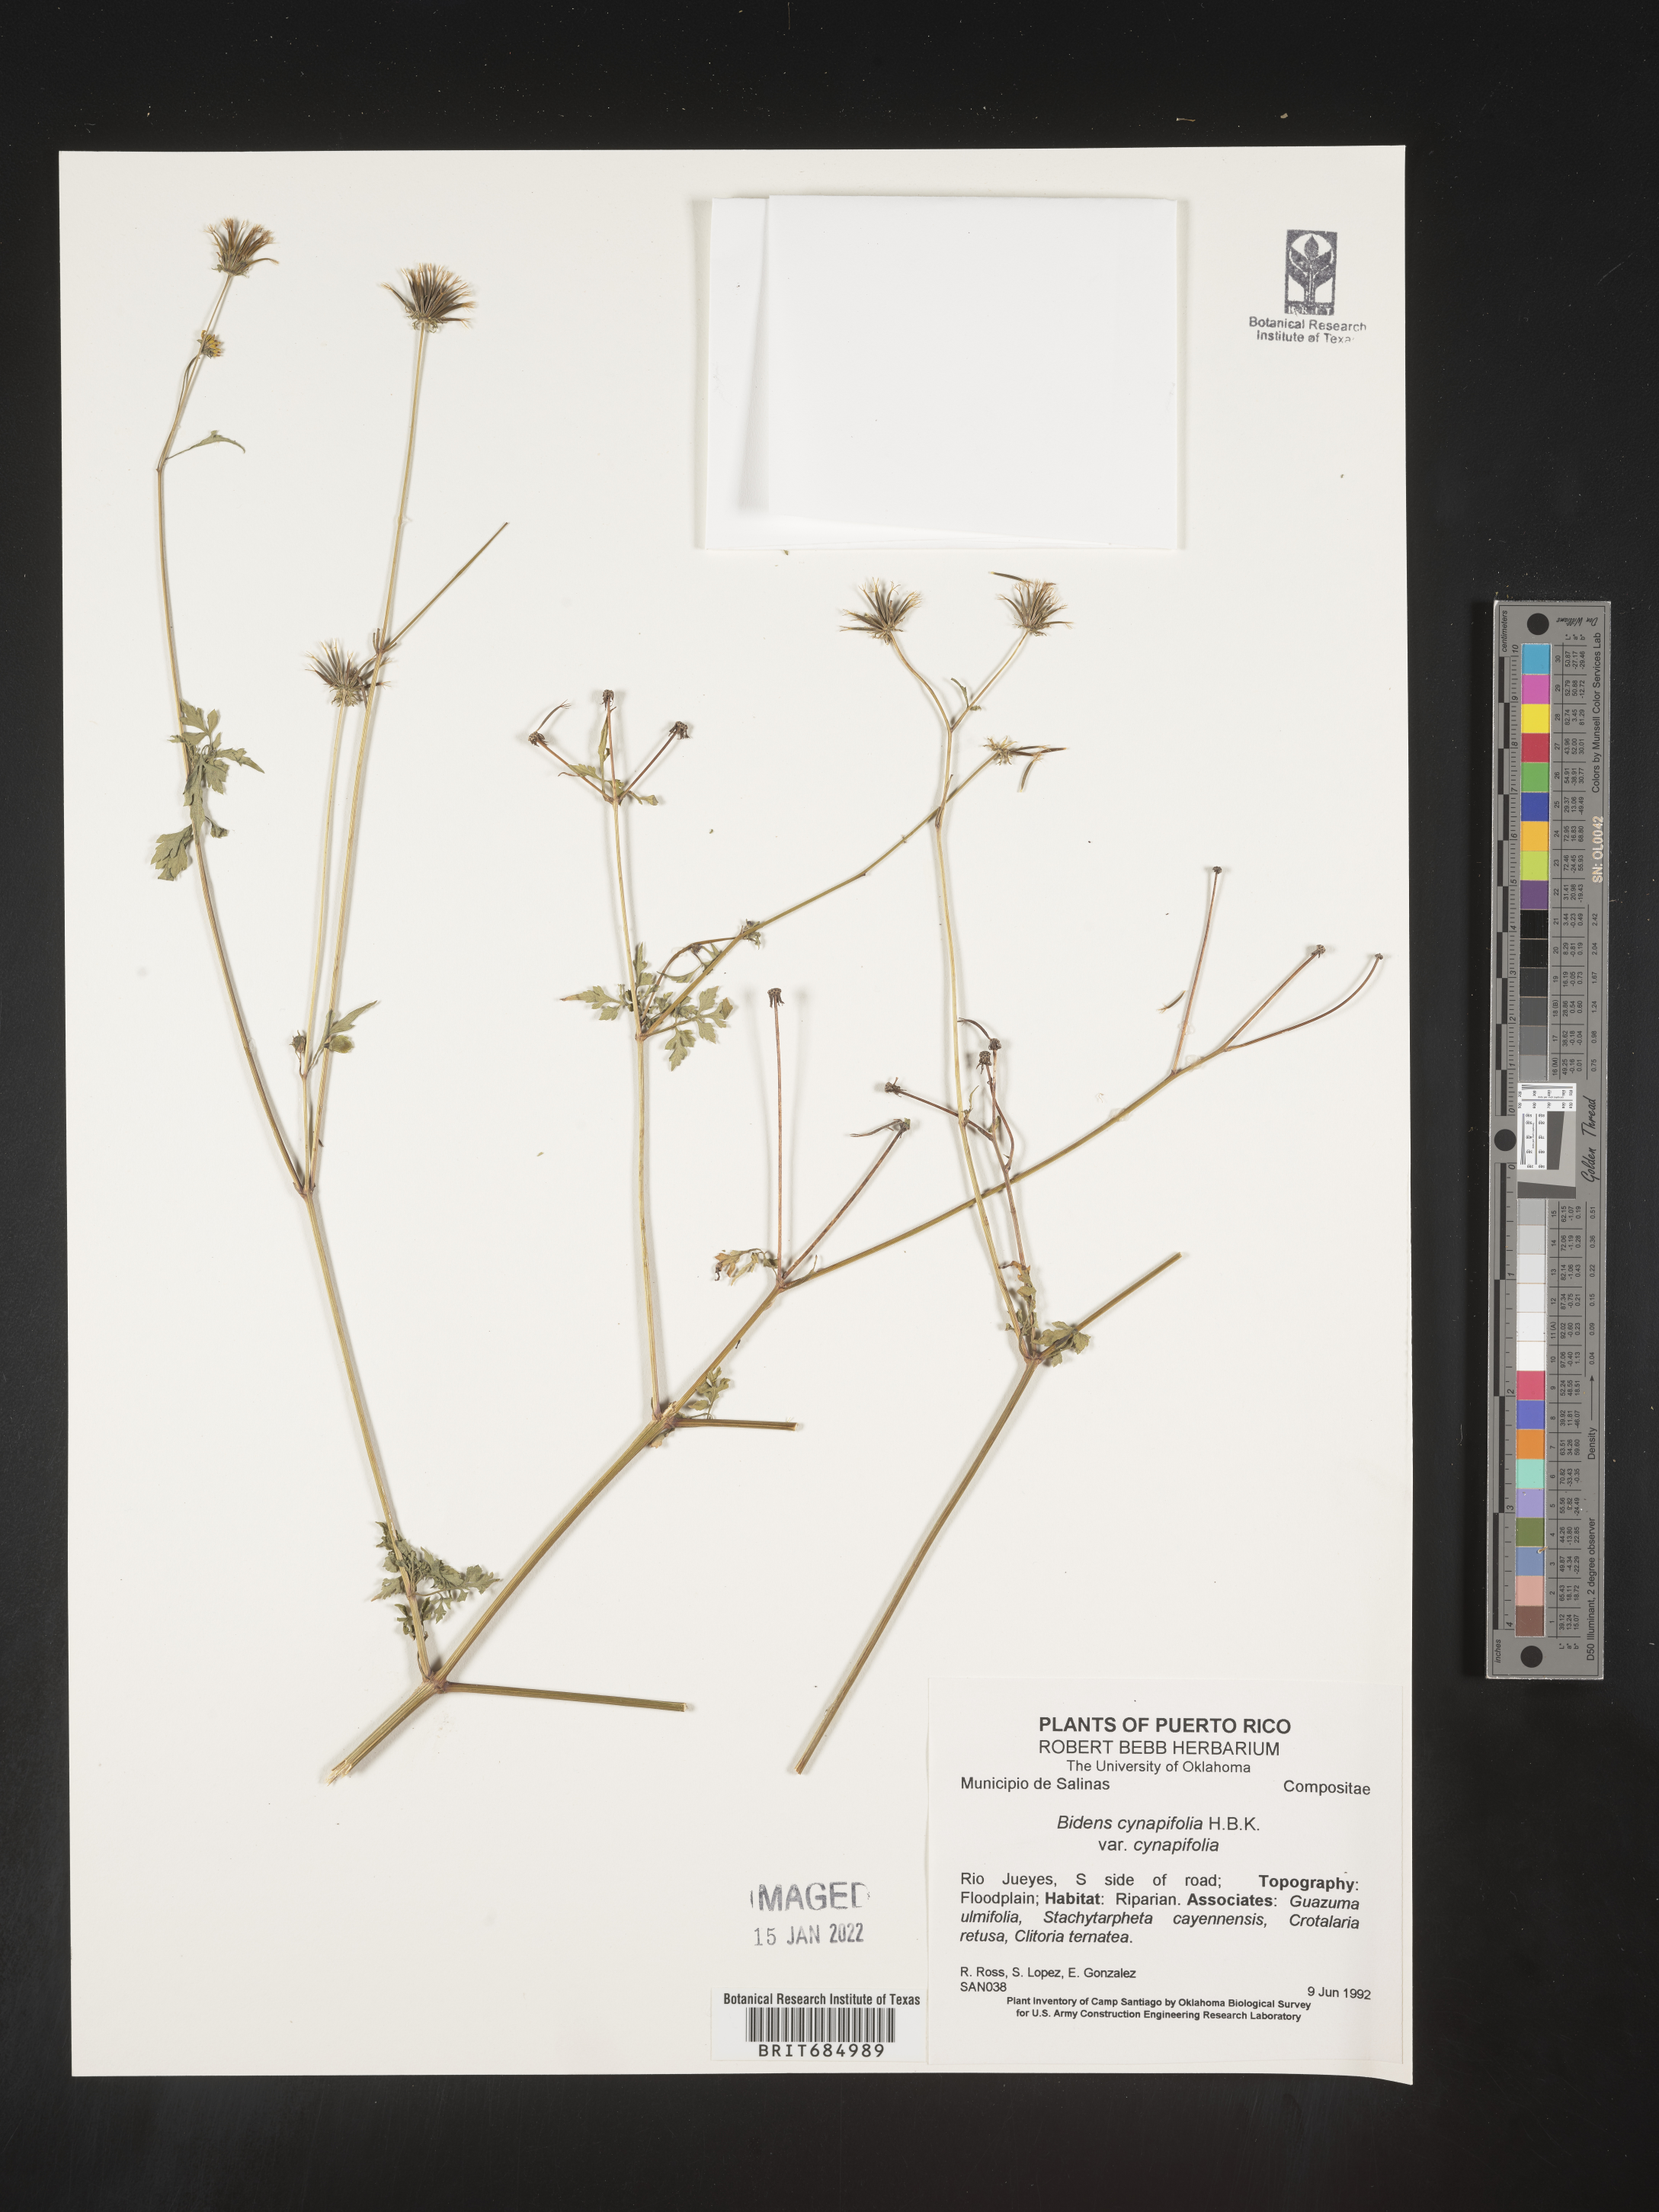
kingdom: Plantae
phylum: Tracheophyta
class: Magnoliopsida
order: Asterales
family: Asteraceae
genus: Bidens
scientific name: Bidens
